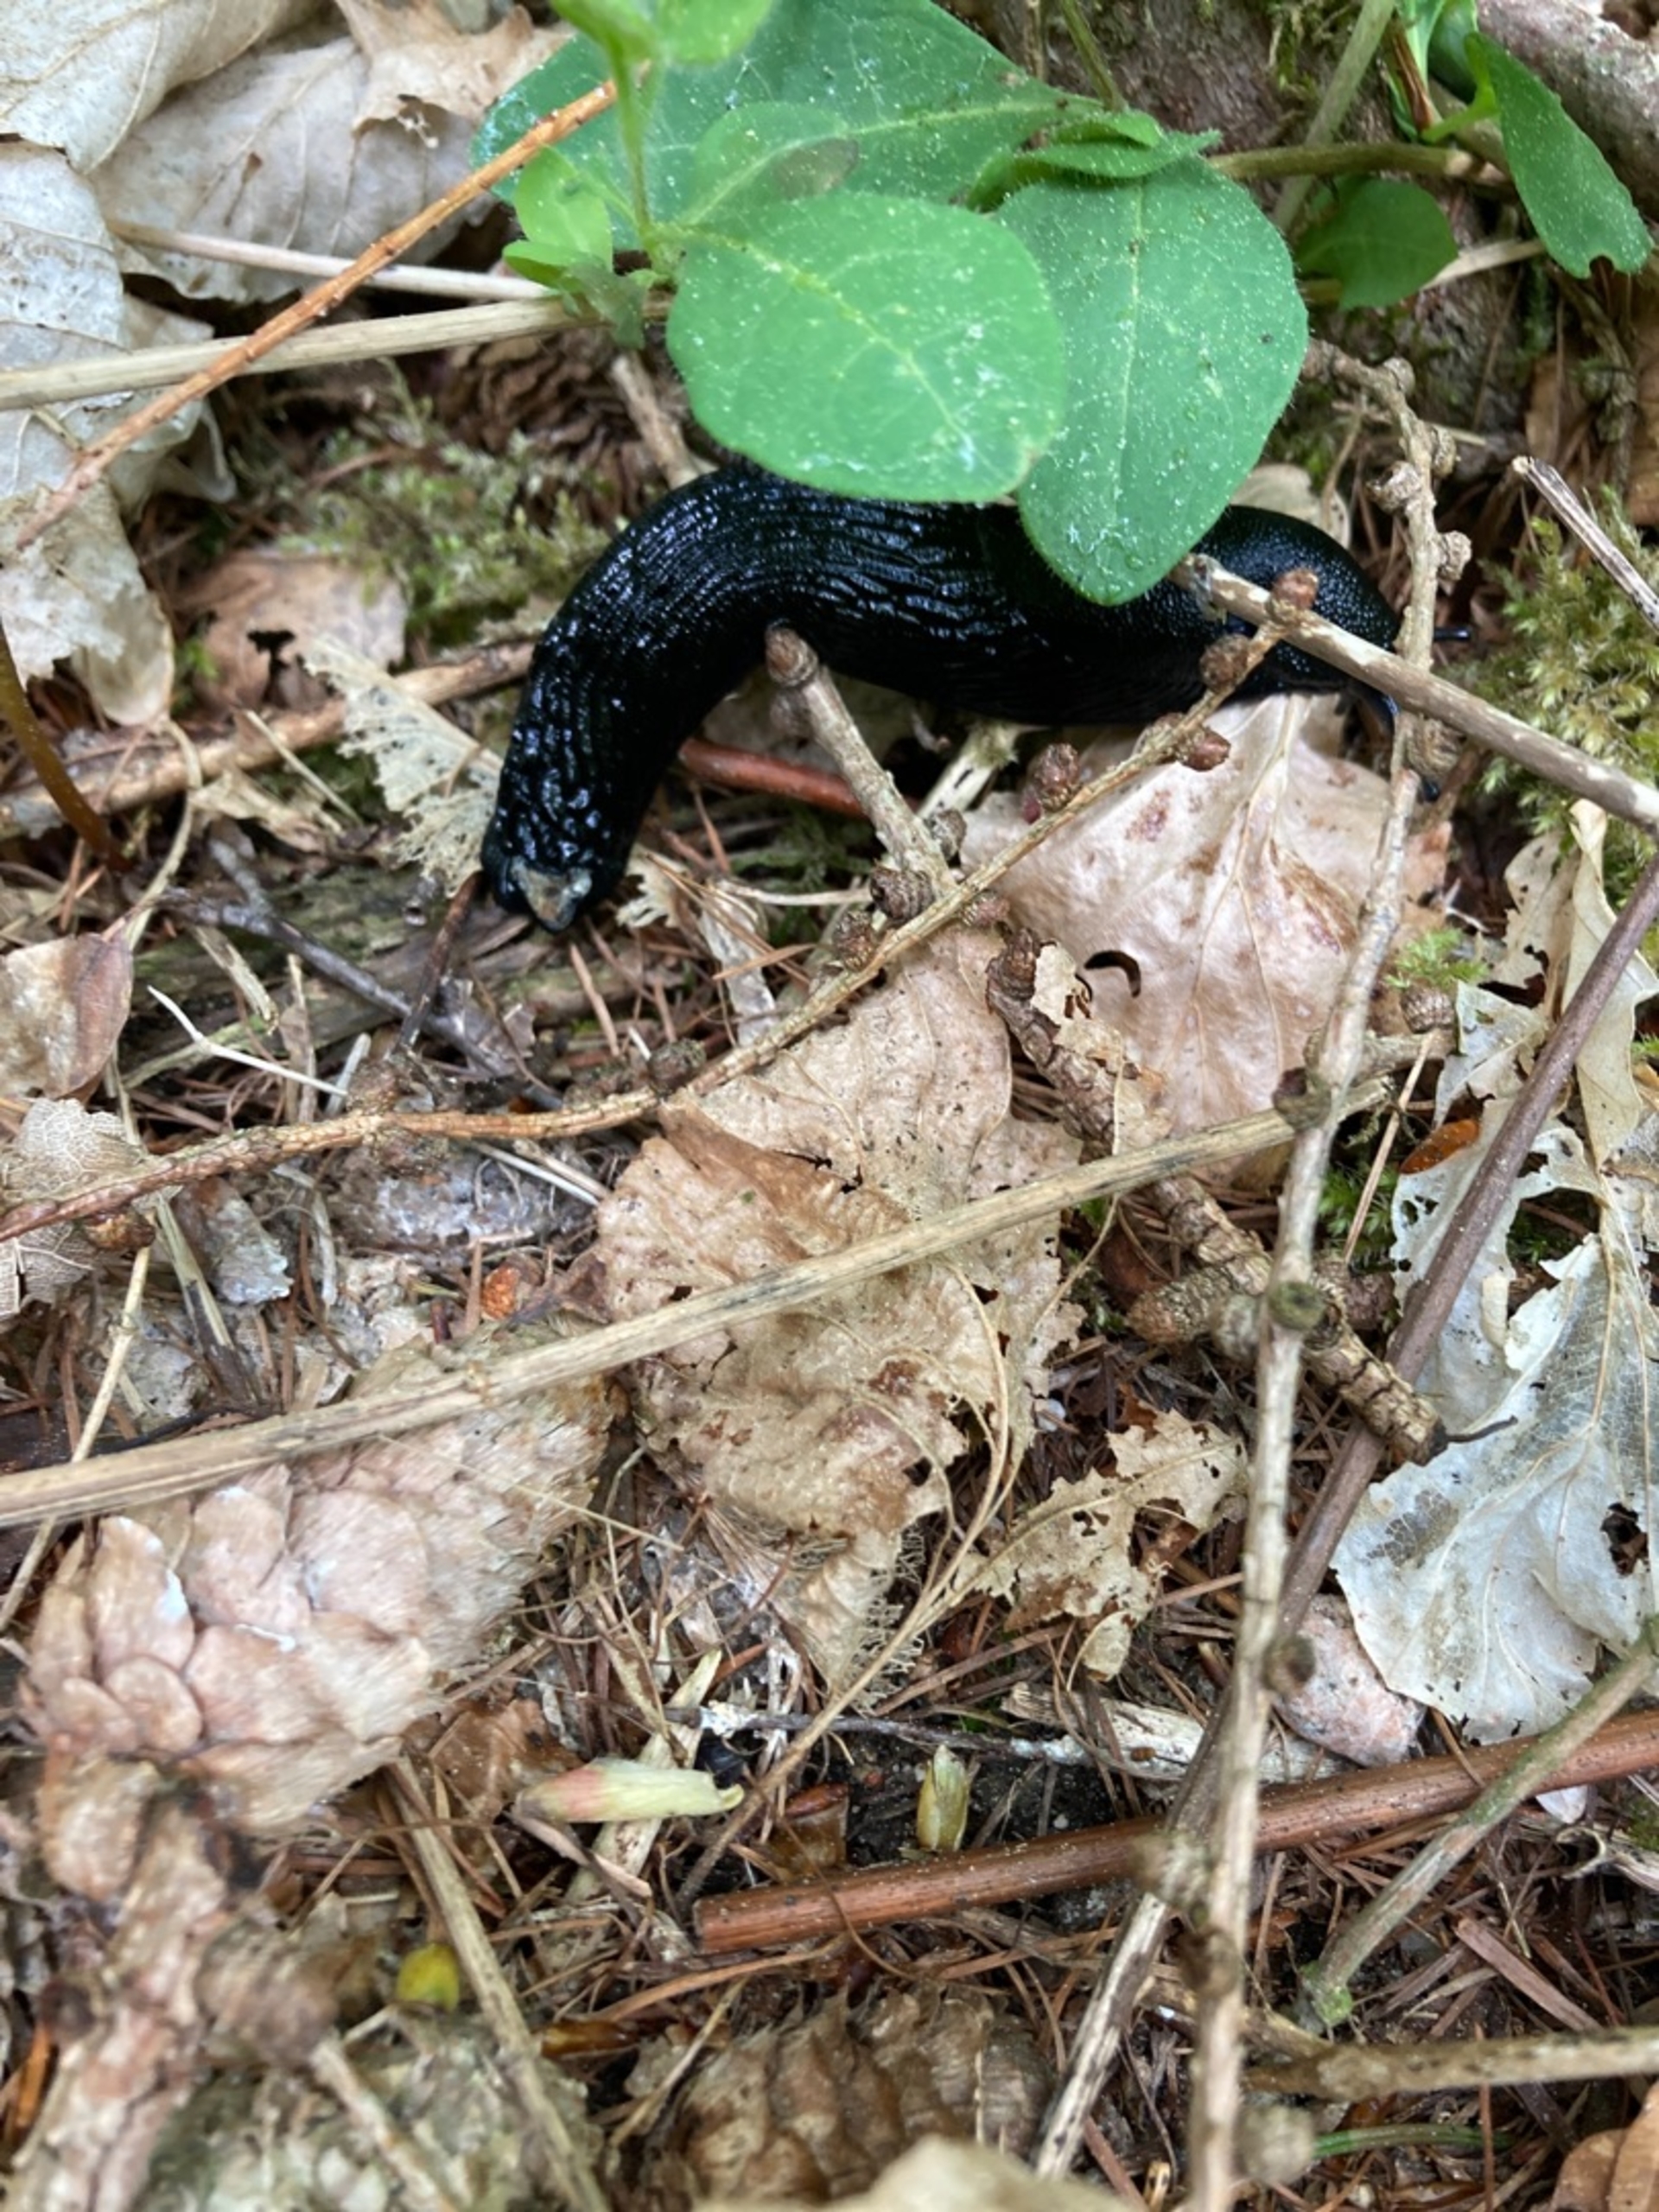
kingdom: Animalia
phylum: Mollusca
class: Gastropoda
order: Stylommatophora
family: Arionidae
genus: Arion
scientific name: Arion ater
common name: Sort skovsnegl
